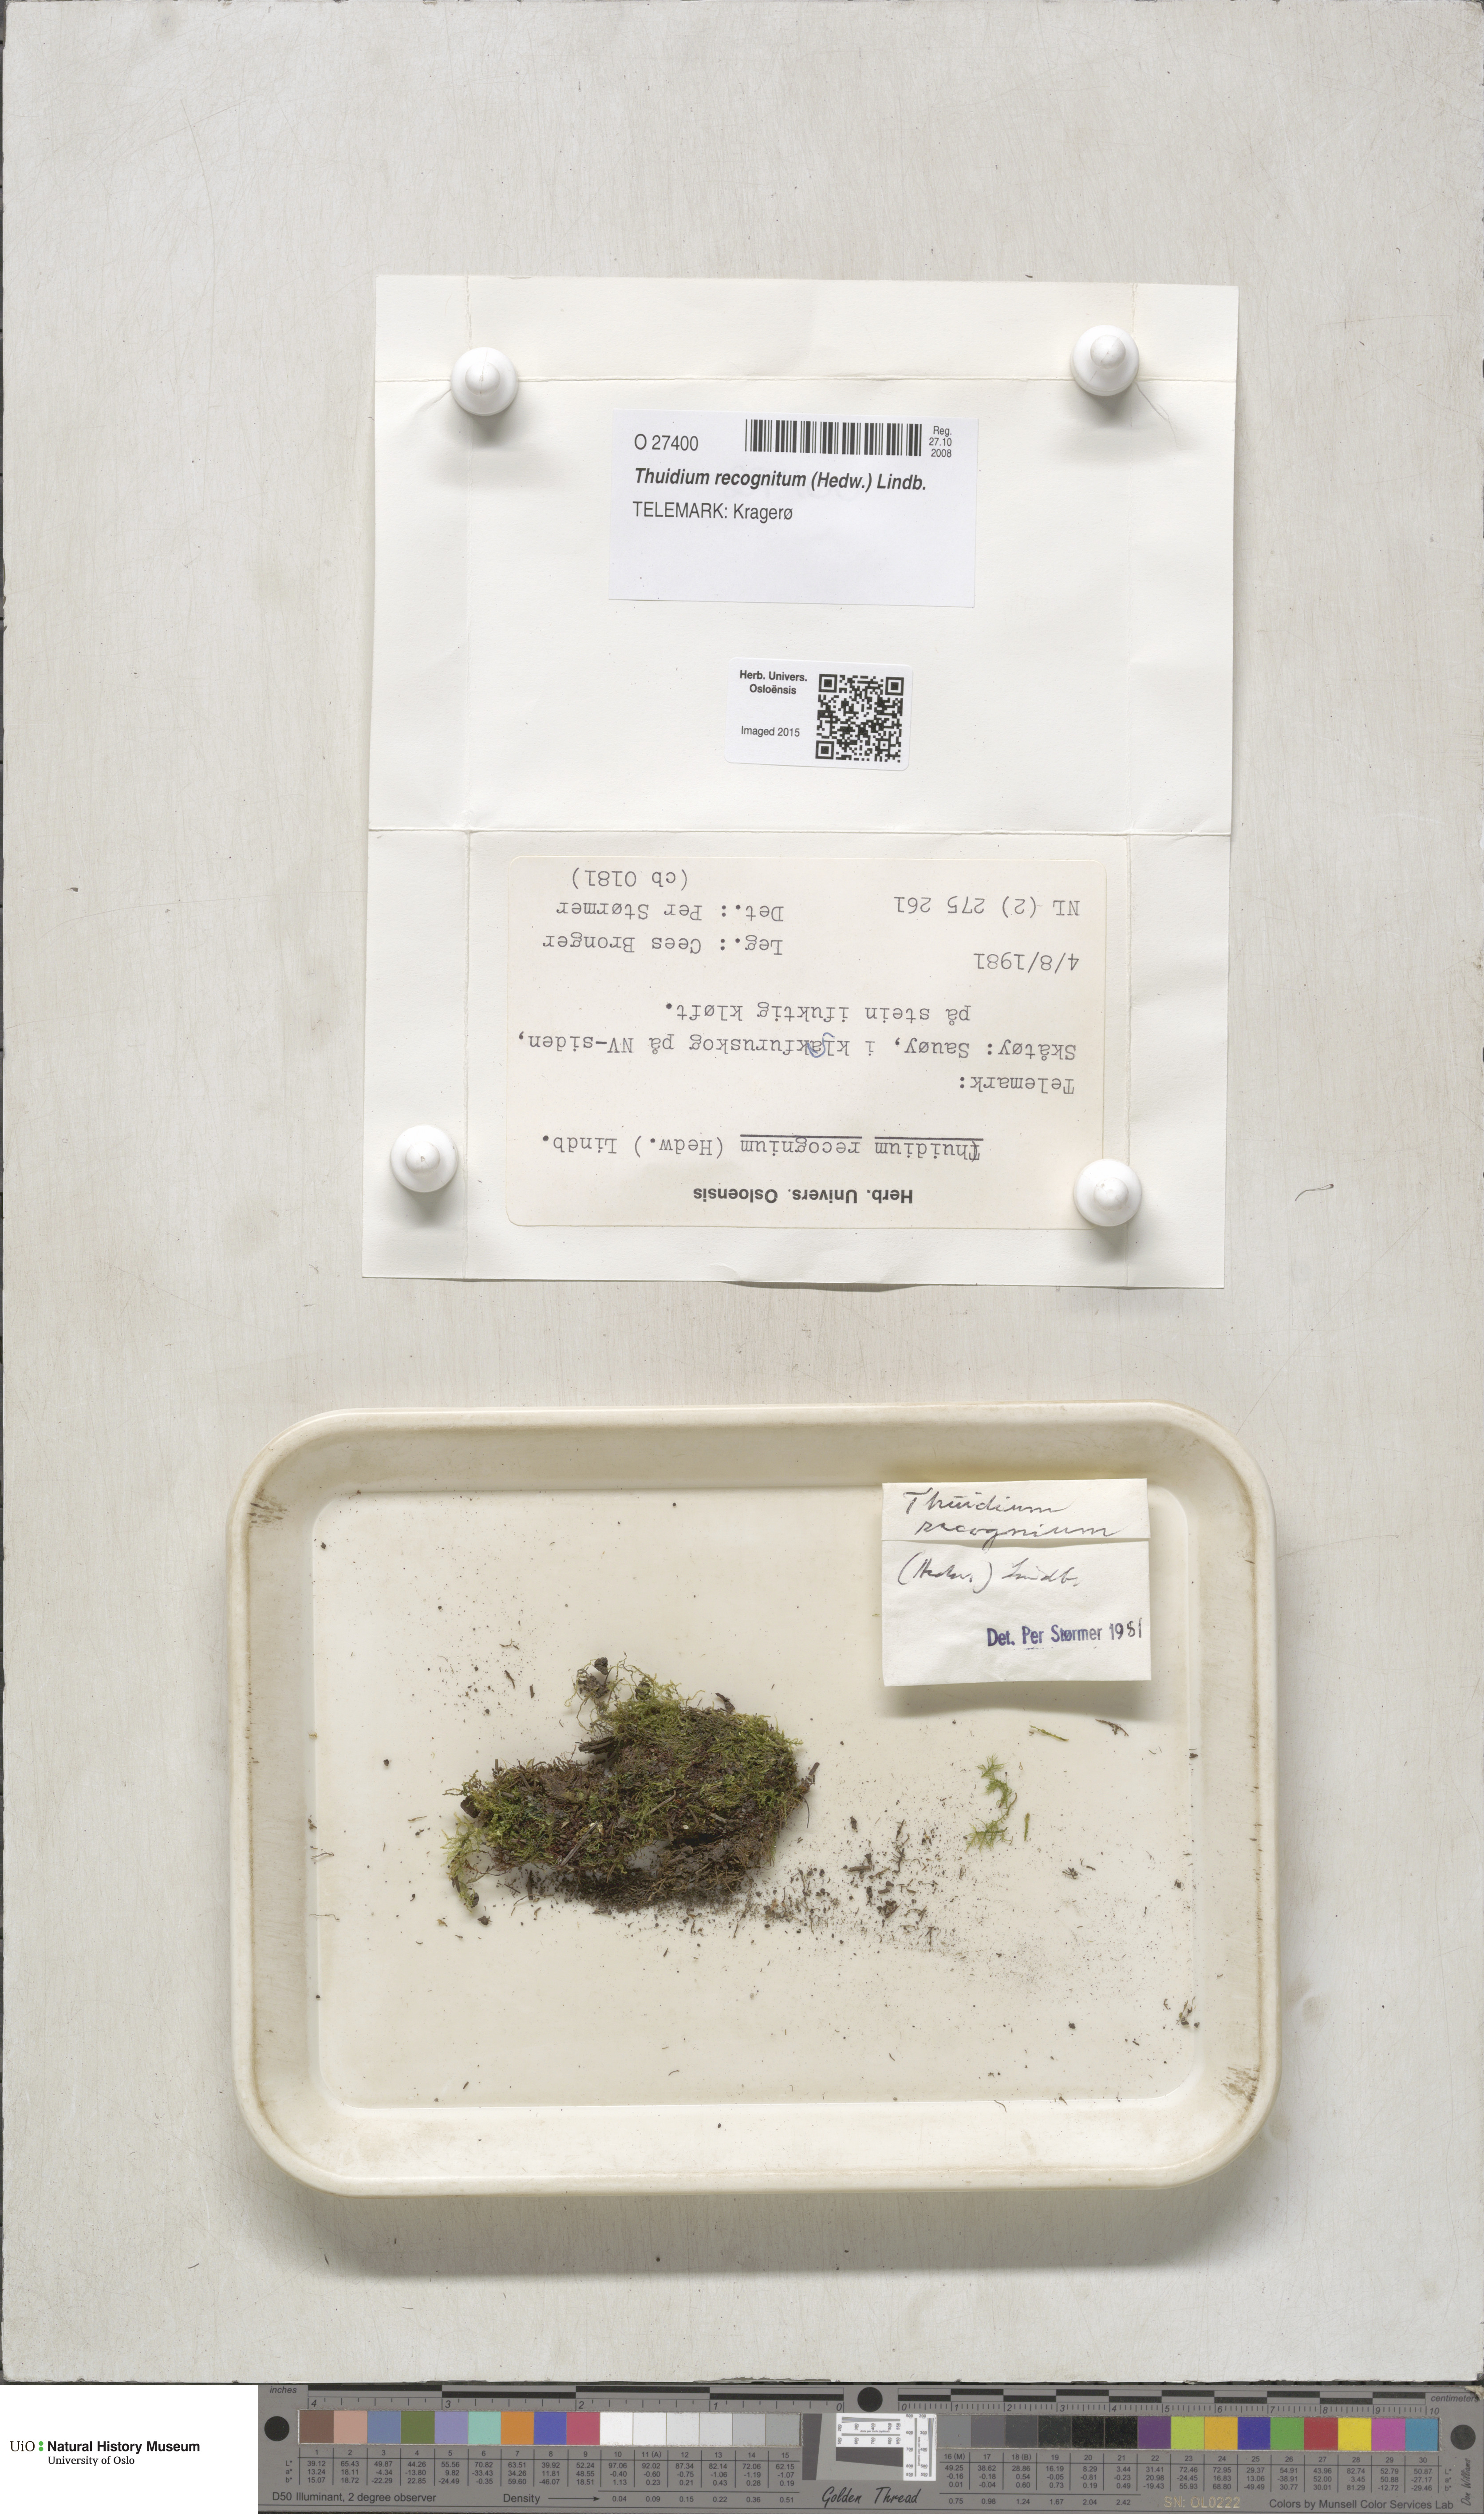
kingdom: Plantae
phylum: Bryophyta
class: Bryopsida
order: Hypnales
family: Thuidiaceae
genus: Thuidium
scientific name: Thuidium recognitum
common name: Hook-leaved fern moss
